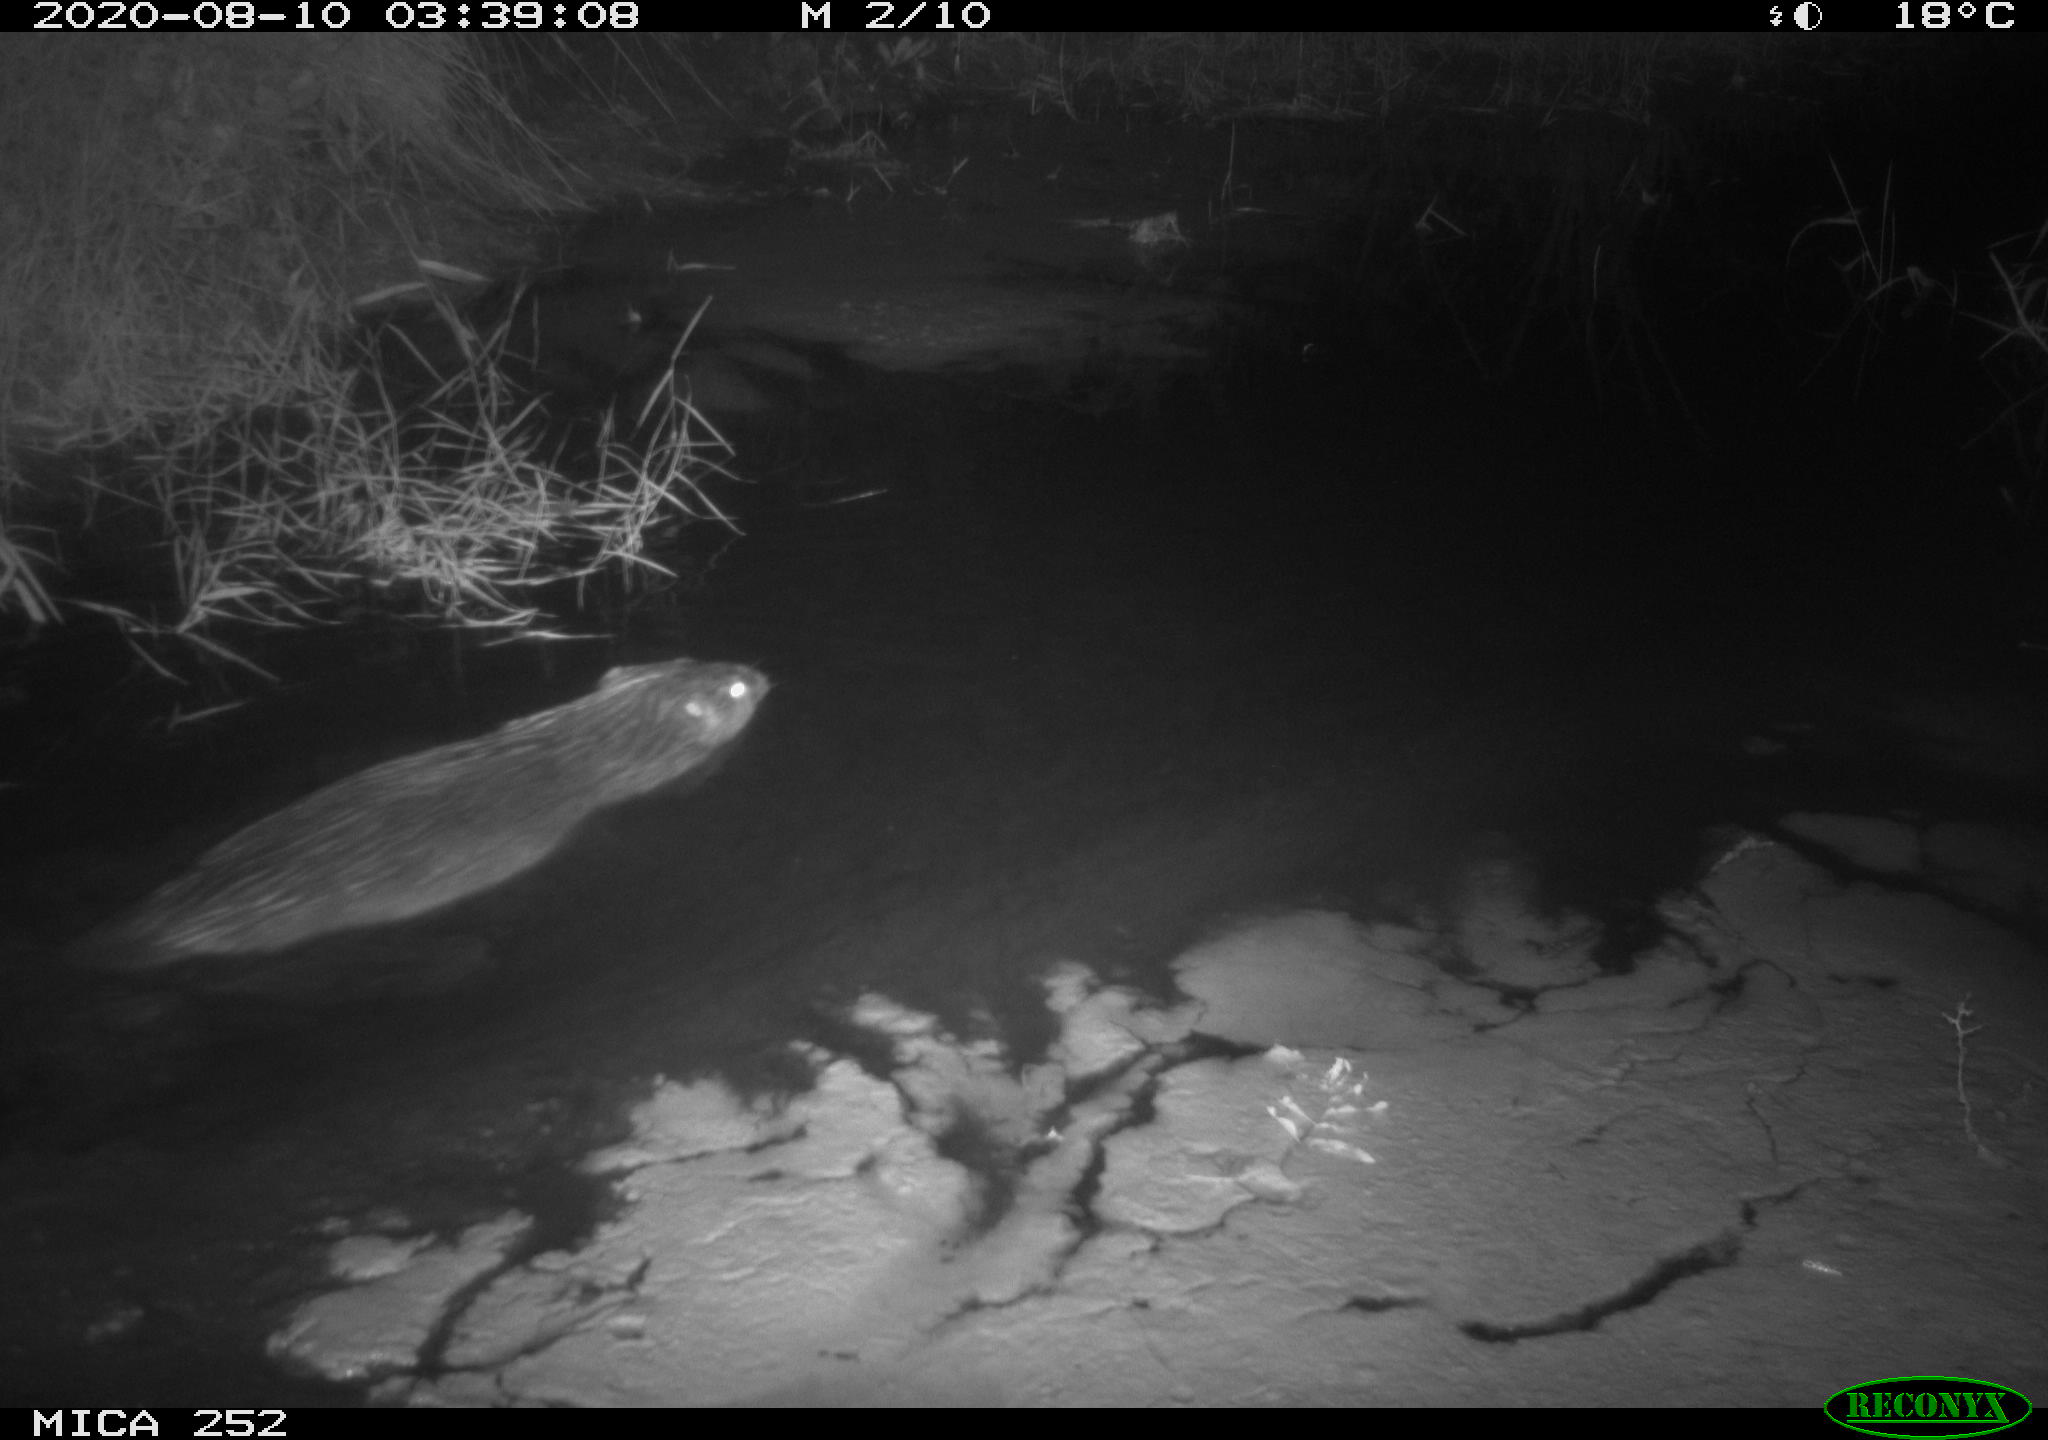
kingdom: Animalia
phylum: Chordata
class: Mammalia
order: Rodentia
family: Castoridae
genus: Castor
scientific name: Castor fiber
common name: Eurasian beaver
